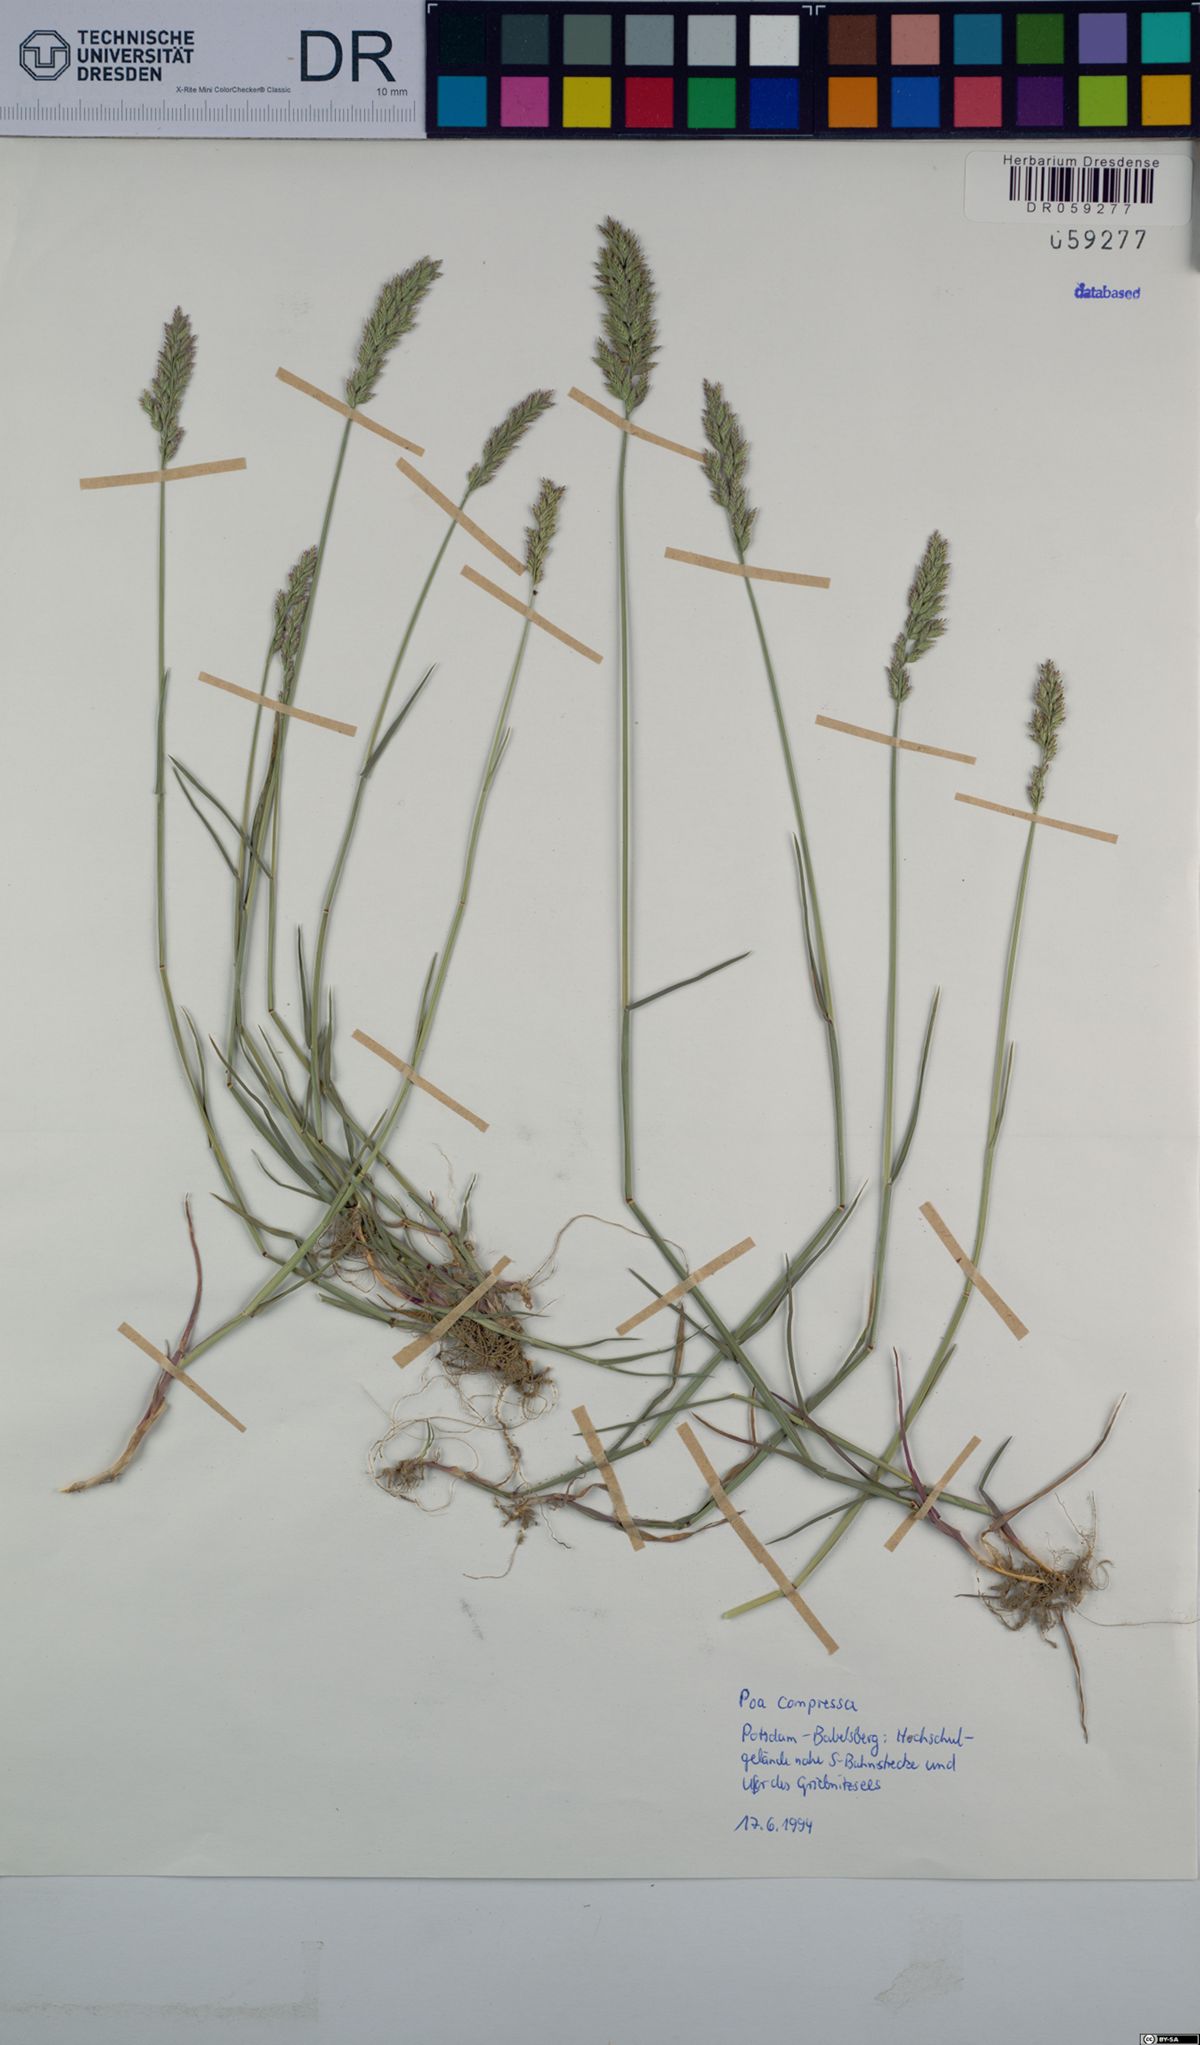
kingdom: Plantae
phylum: Tracheophyta
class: Liliopsida
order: Poales
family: Poaceae
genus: Poa
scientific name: Poa compressa
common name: Canada bluegrass
